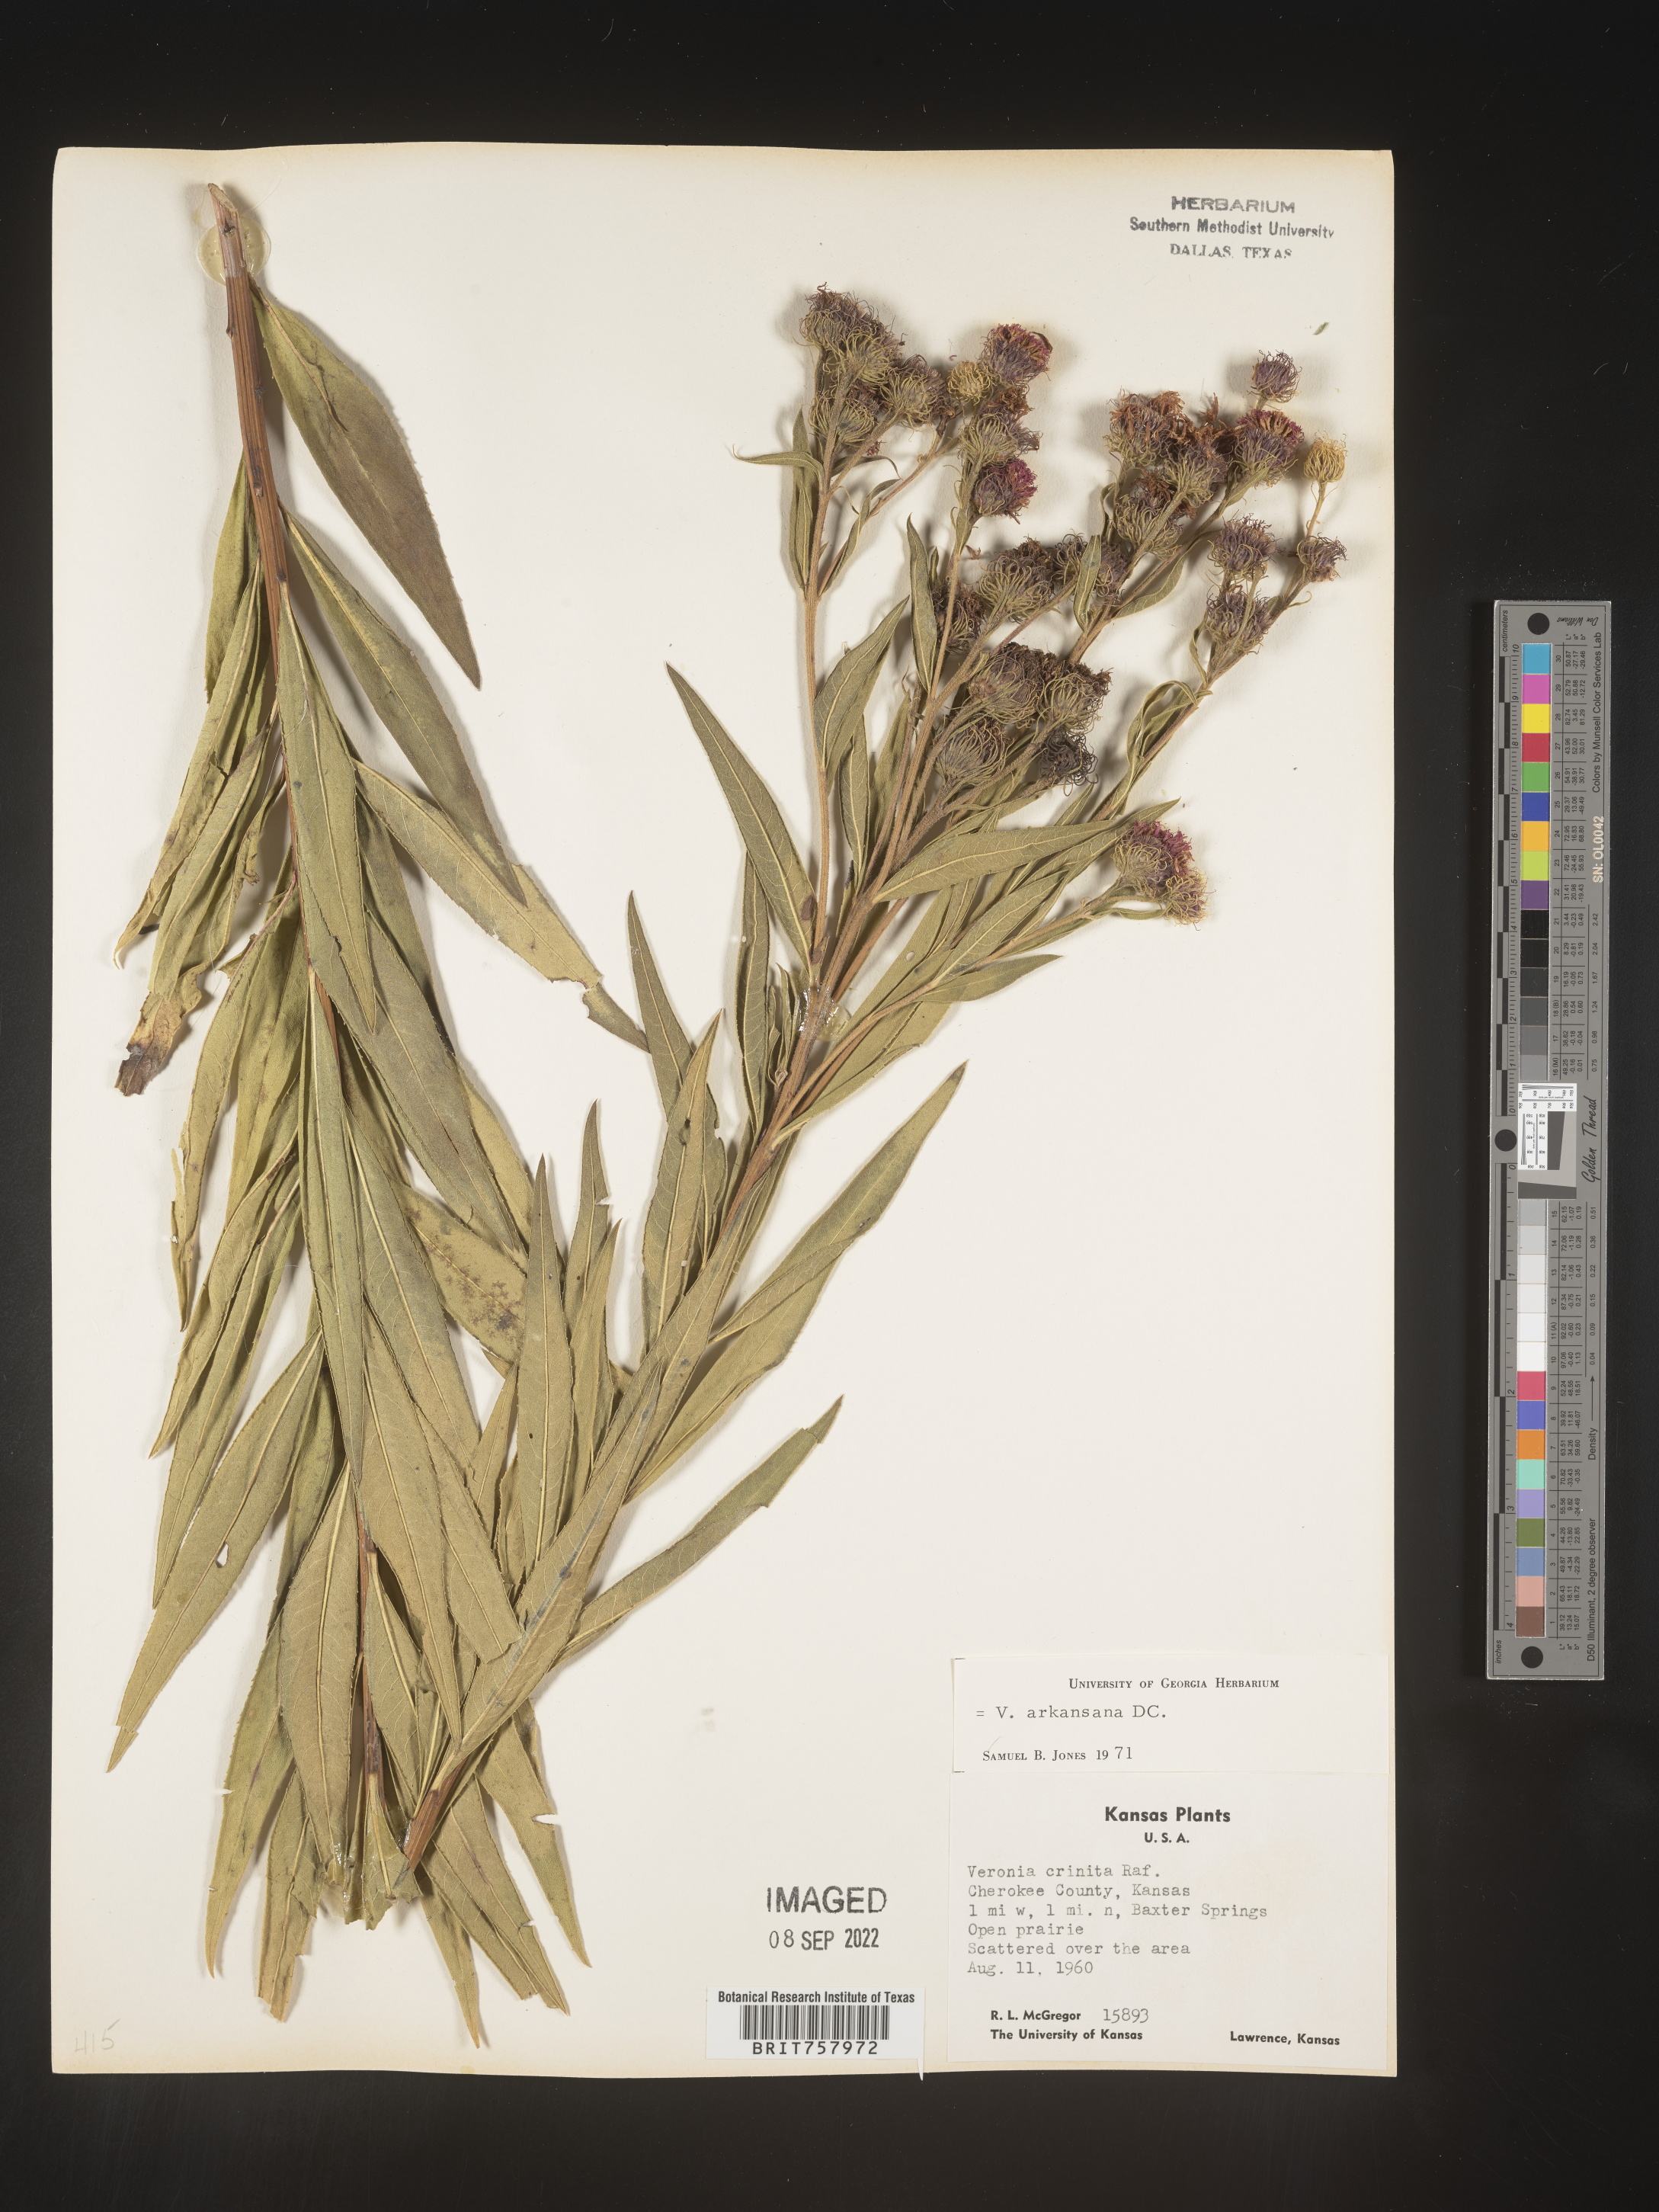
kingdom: Plantae
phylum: Tracheophyta
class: Magnoliopsida
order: Asterales
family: Asteraceae
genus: Vernonia
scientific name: Vernonia arkansana
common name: Ozark ironweed
